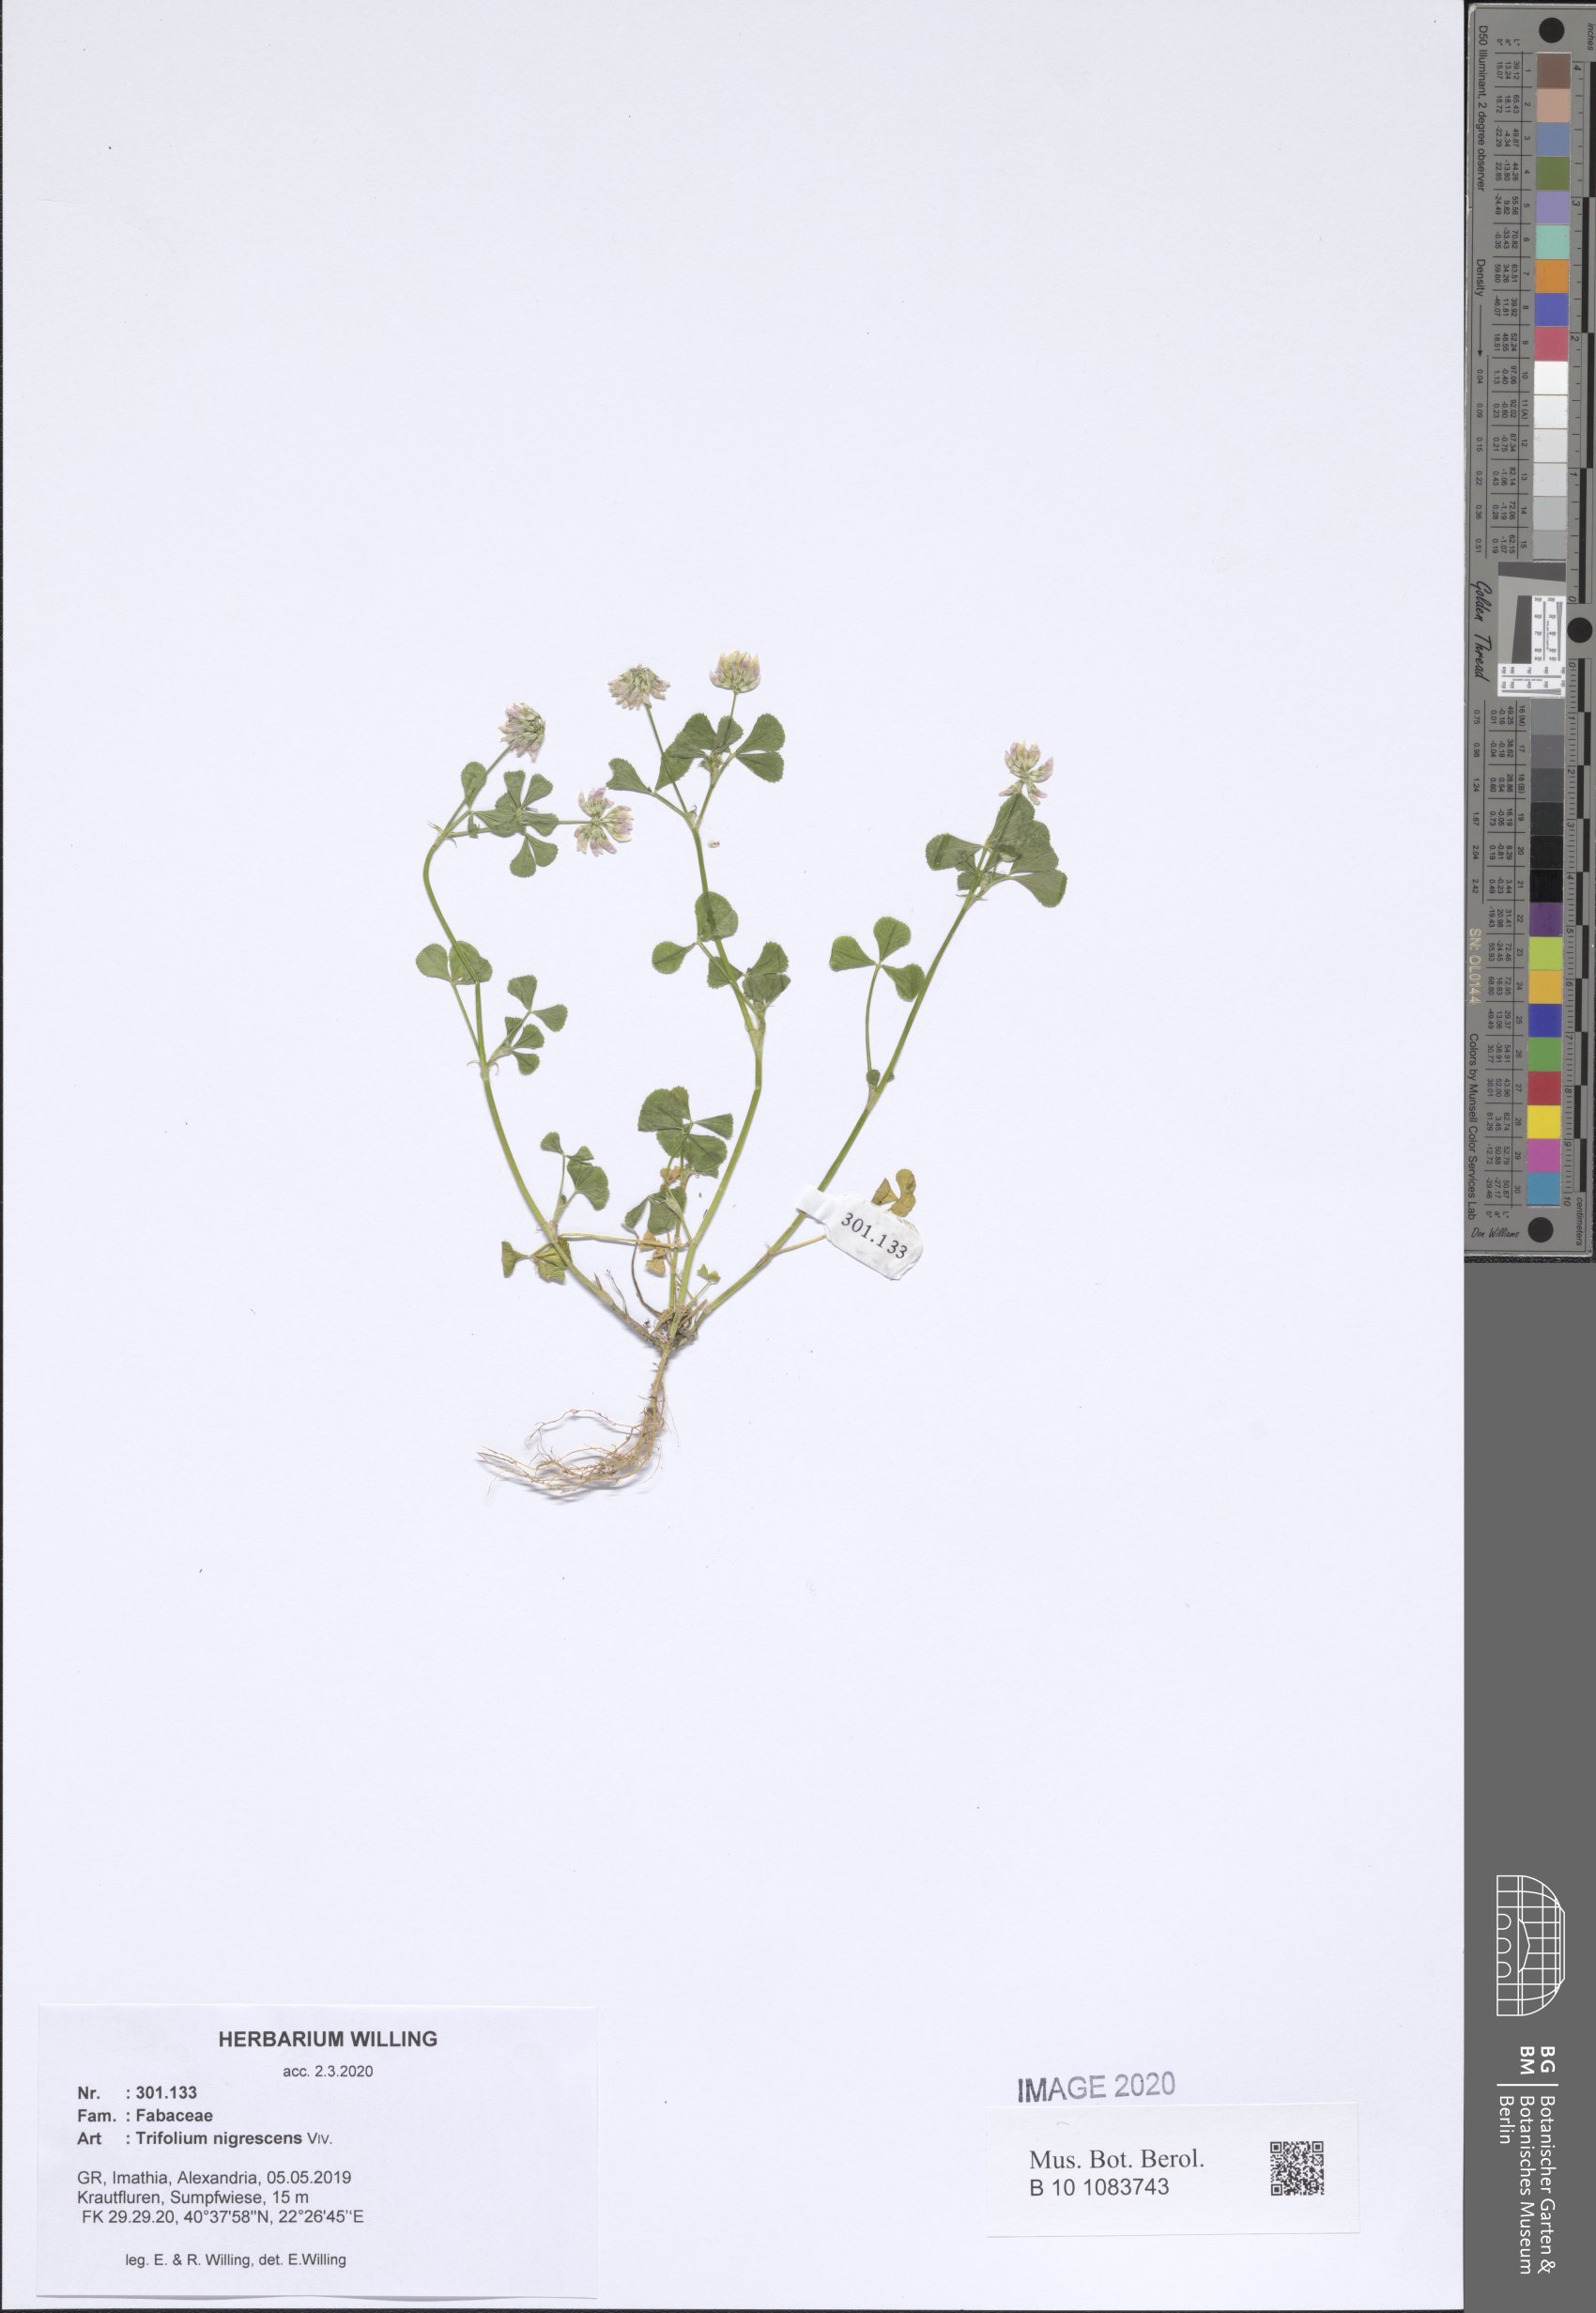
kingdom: Plantae
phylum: Tracheophyta
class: Magnoliopsida
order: Fabales
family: Fabaceae
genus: Trifolium
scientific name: Trifolium nigrescens
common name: Small white clover
